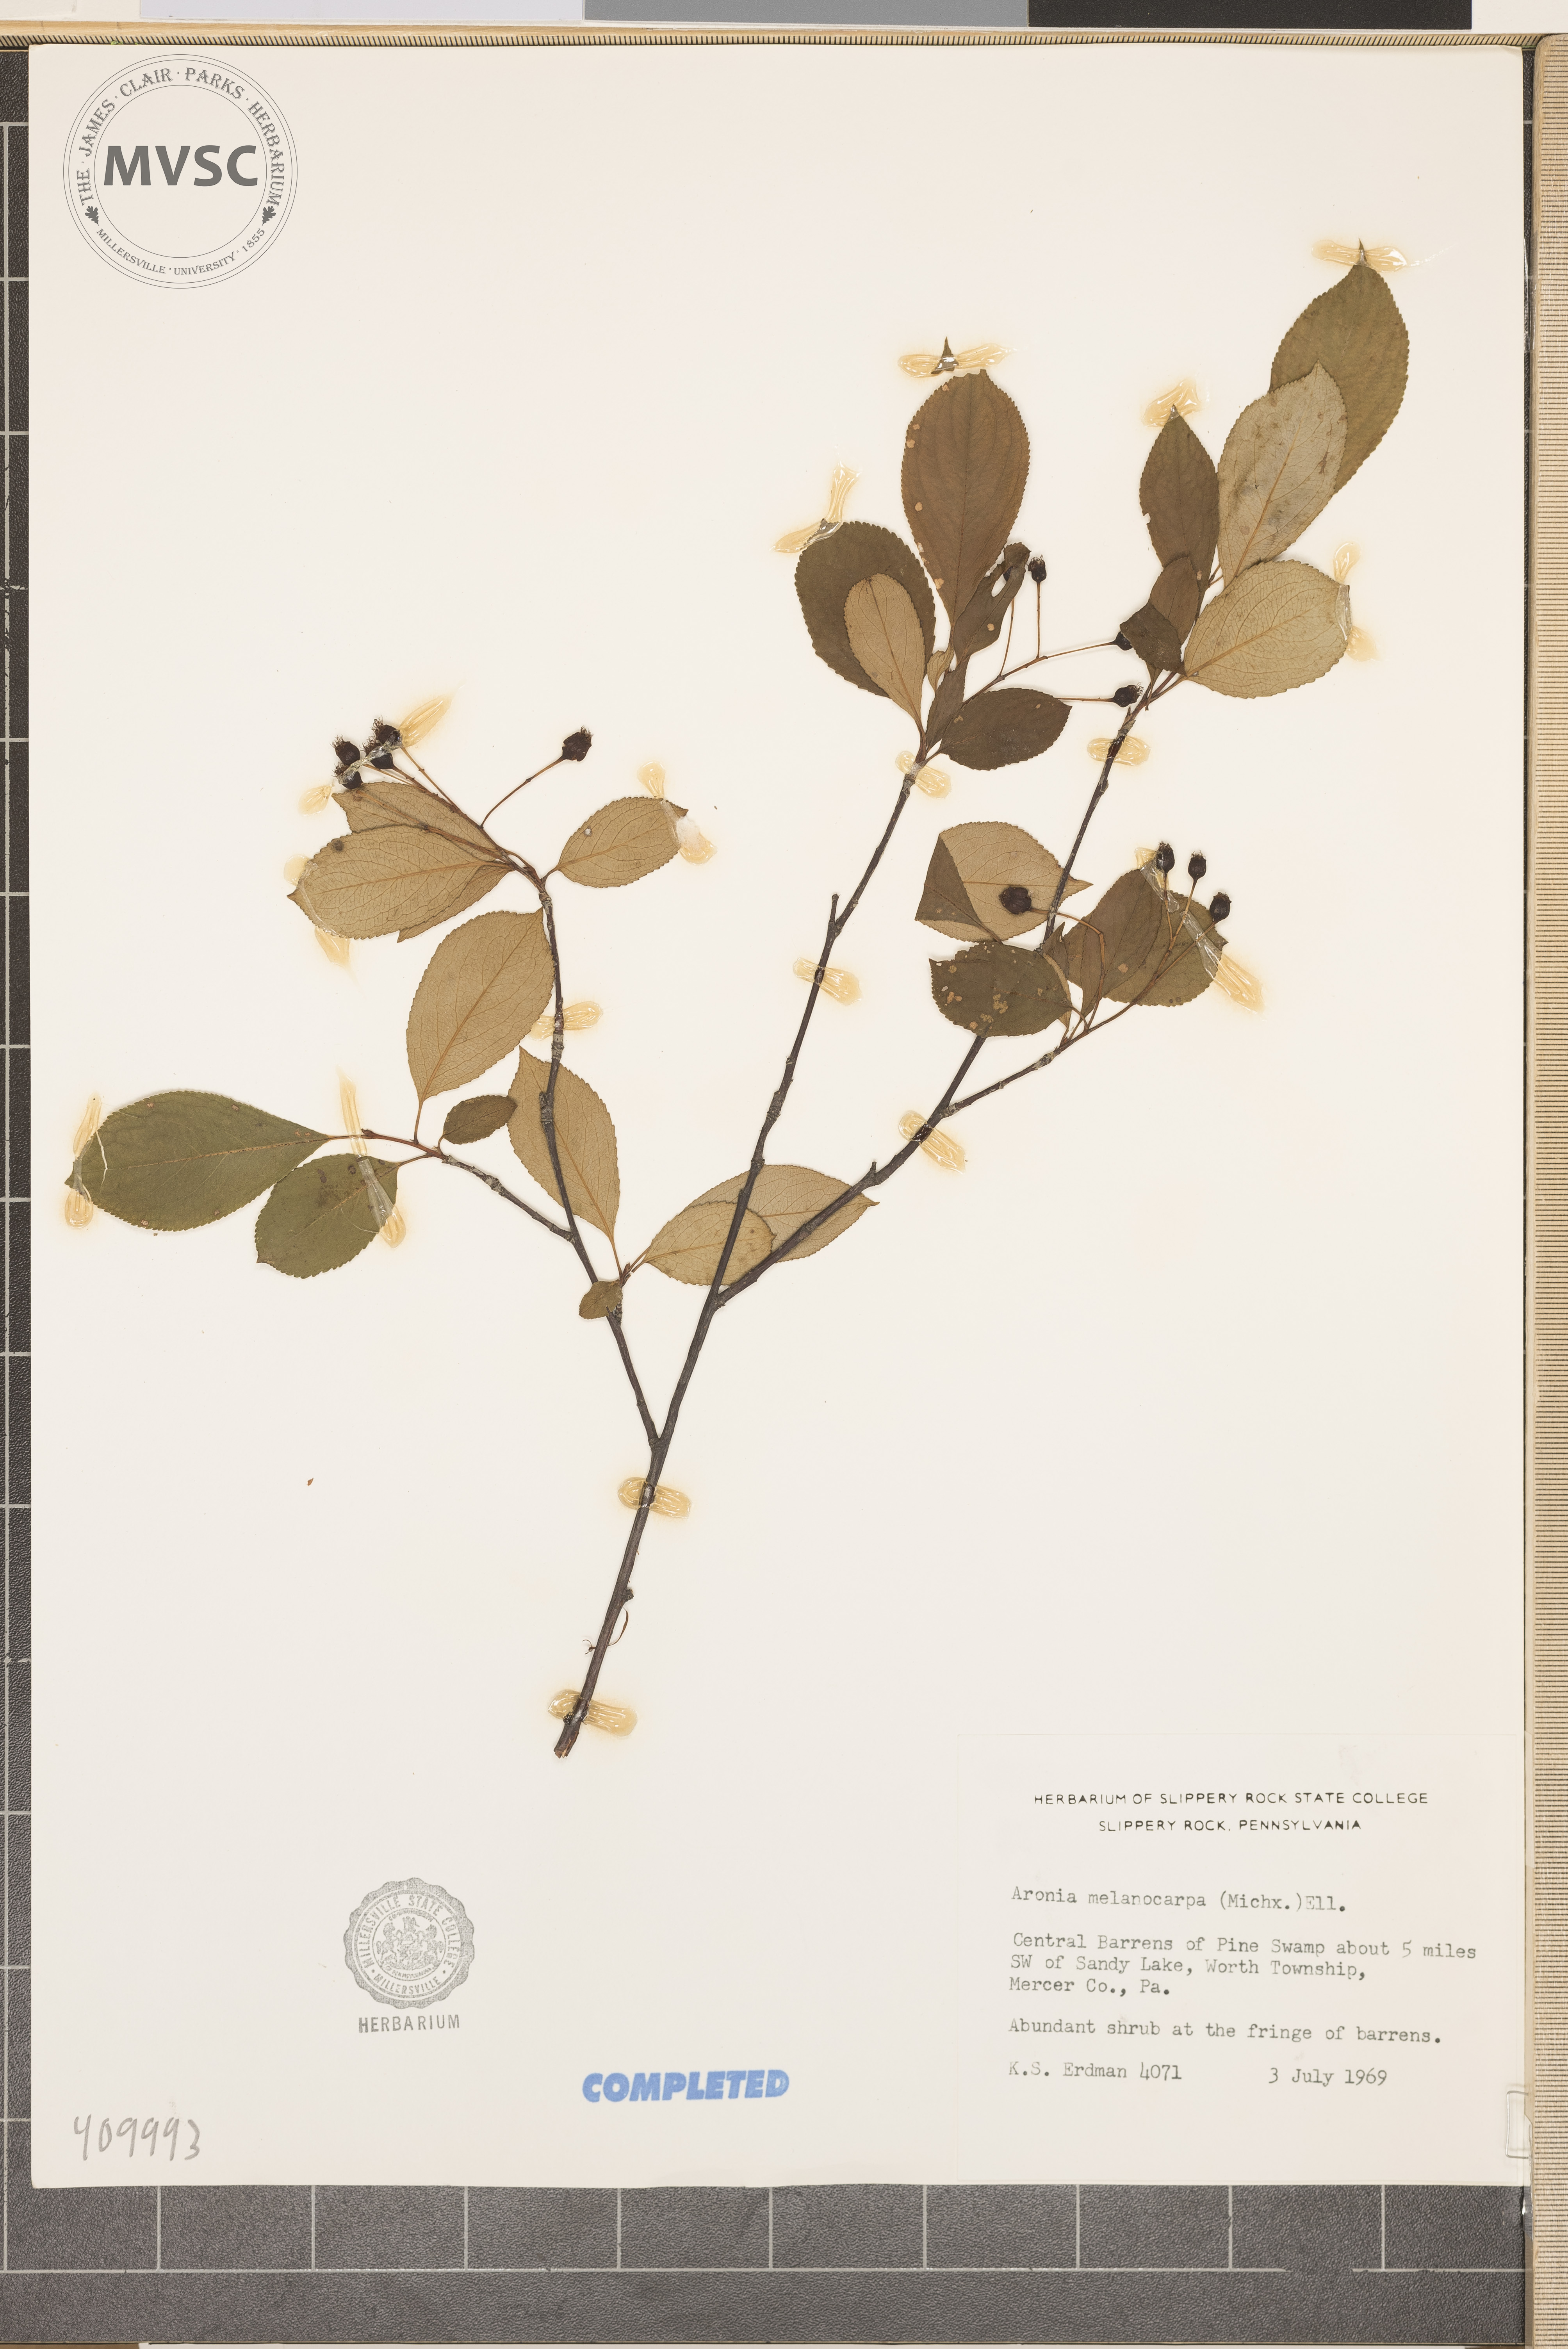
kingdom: Plantae
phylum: Tracheophyta
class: Magnoliopsida
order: Rosales
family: Rosaceae
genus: Aronia
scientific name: Aronia melanocarpa
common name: Black chokeberry
